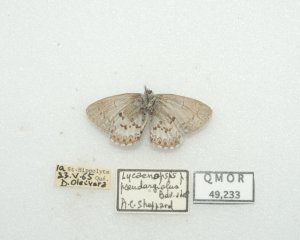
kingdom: Animalia
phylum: Arthropoda
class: Insecta
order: Lepidoptera
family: Lycaenidae
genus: Celastrina
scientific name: Celastrina lucia
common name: Northern Spring Azure
